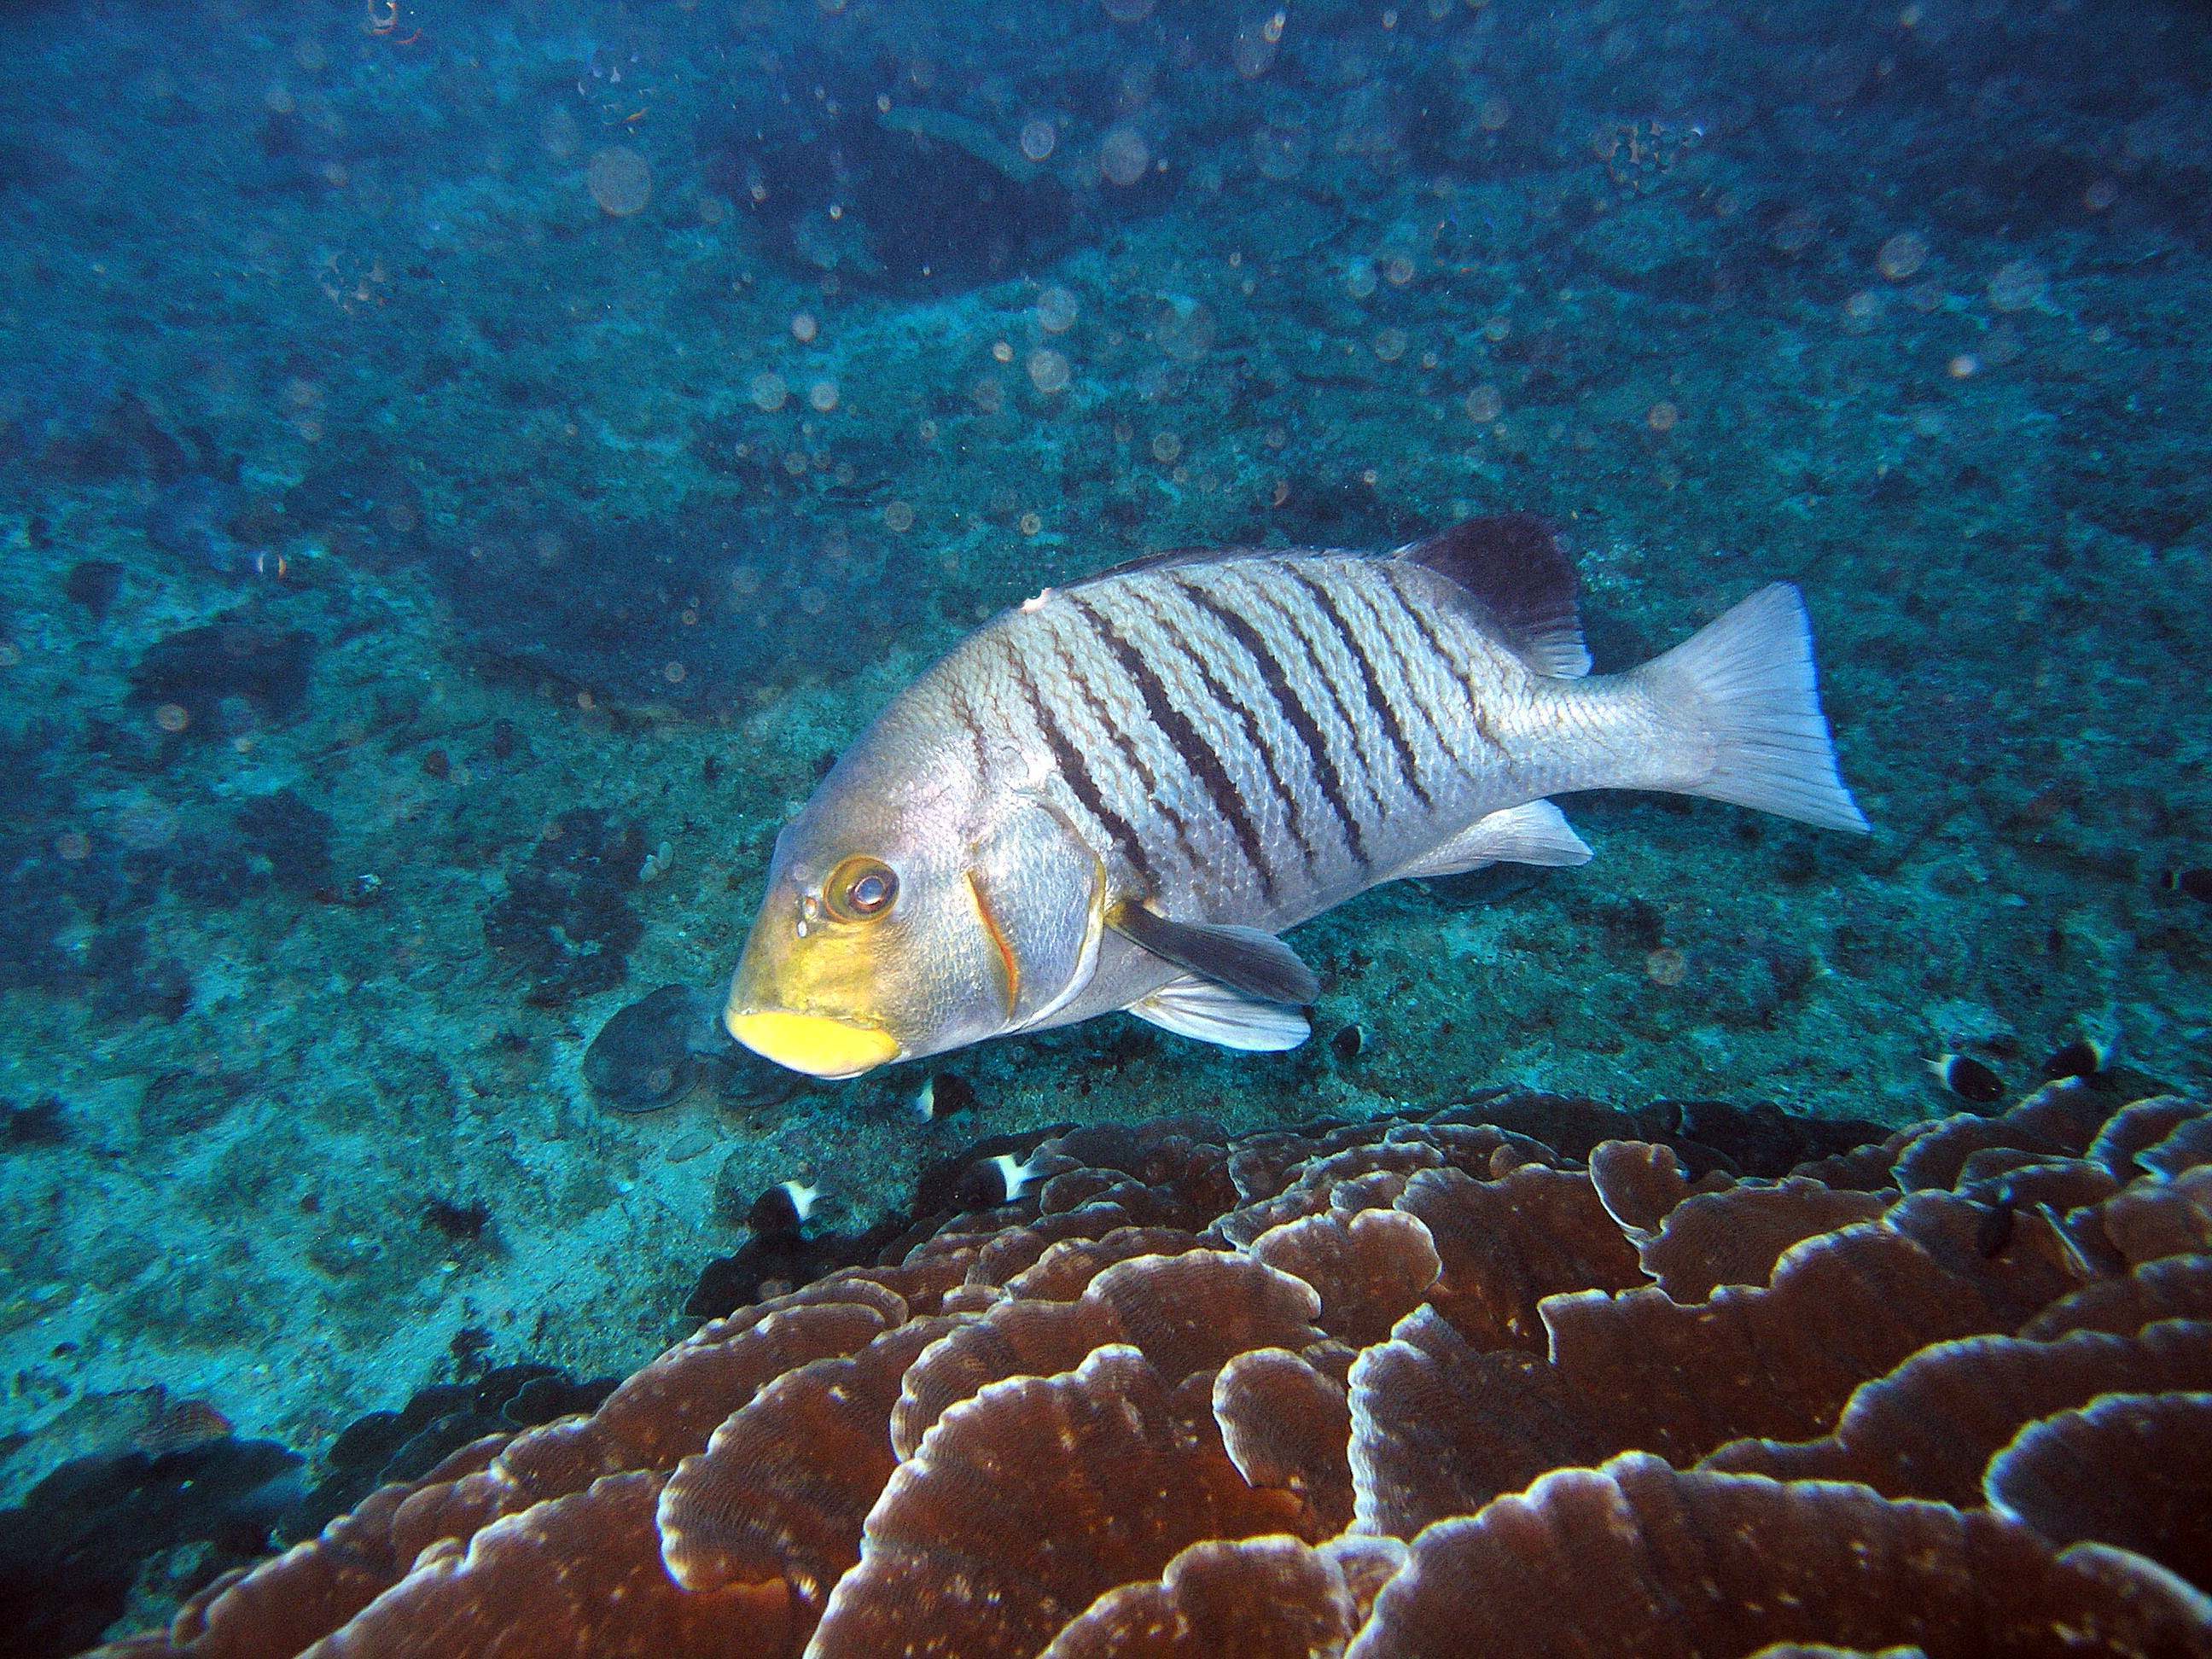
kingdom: Animalia
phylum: Chordata
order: Perciformes
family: Haemulidae
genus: Plectorhinchus
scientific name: Plectorhinchus plagiodesmus
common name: Barred rubberlip
